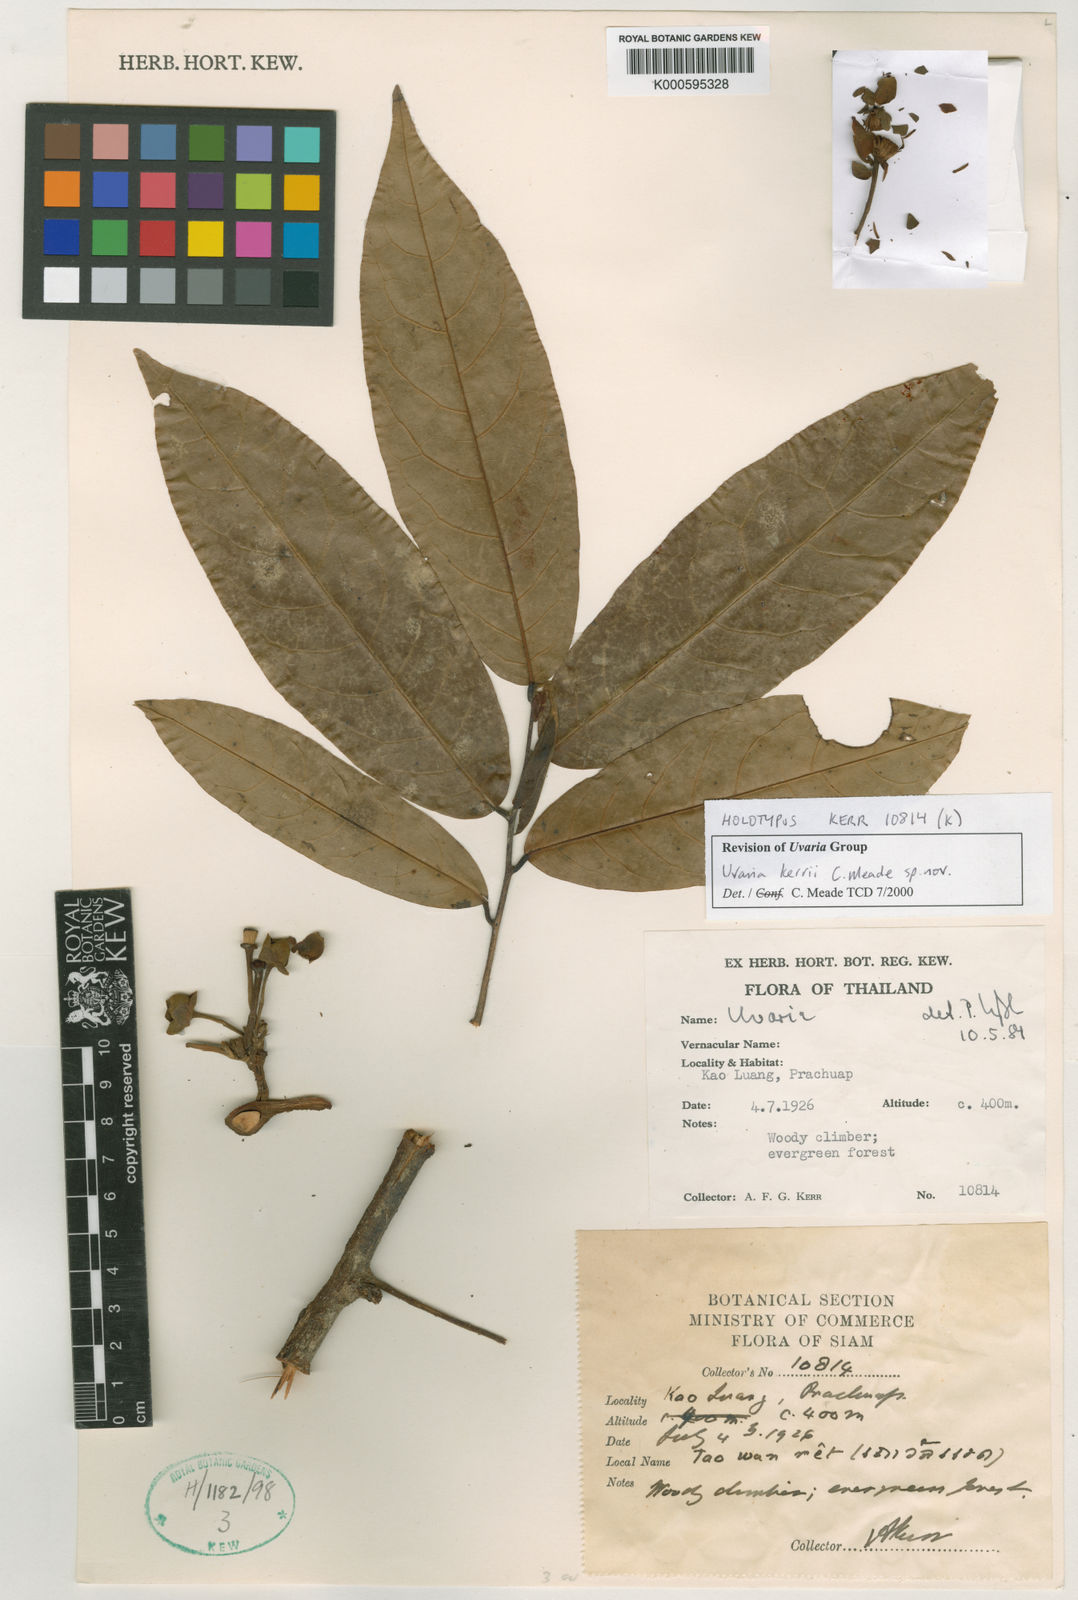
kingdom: Plantae
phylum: Tracheophyta
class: Magnoliopsida
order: Magnoliales
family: Annonaceae
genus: Uvaria
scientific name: Uvaria
